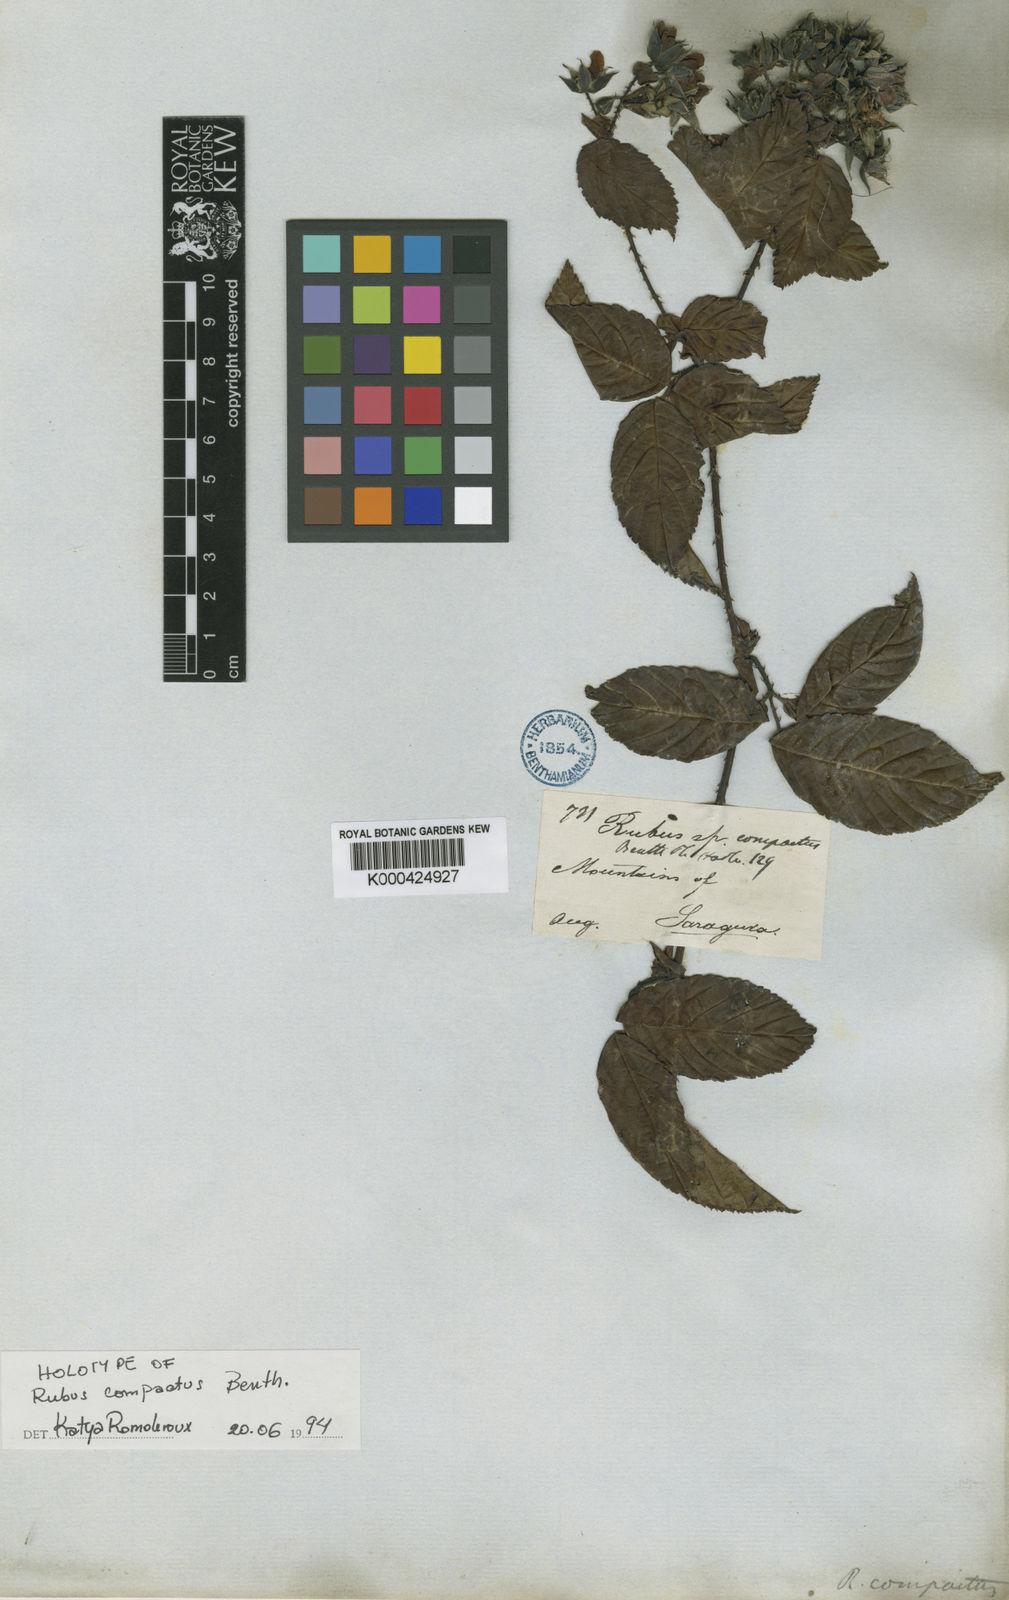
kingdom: Plantae
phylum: Tracheophyta
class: Magnoliopsida
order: Rosales
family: Rosaceae
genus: Rubus
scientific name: Rubus compactus
